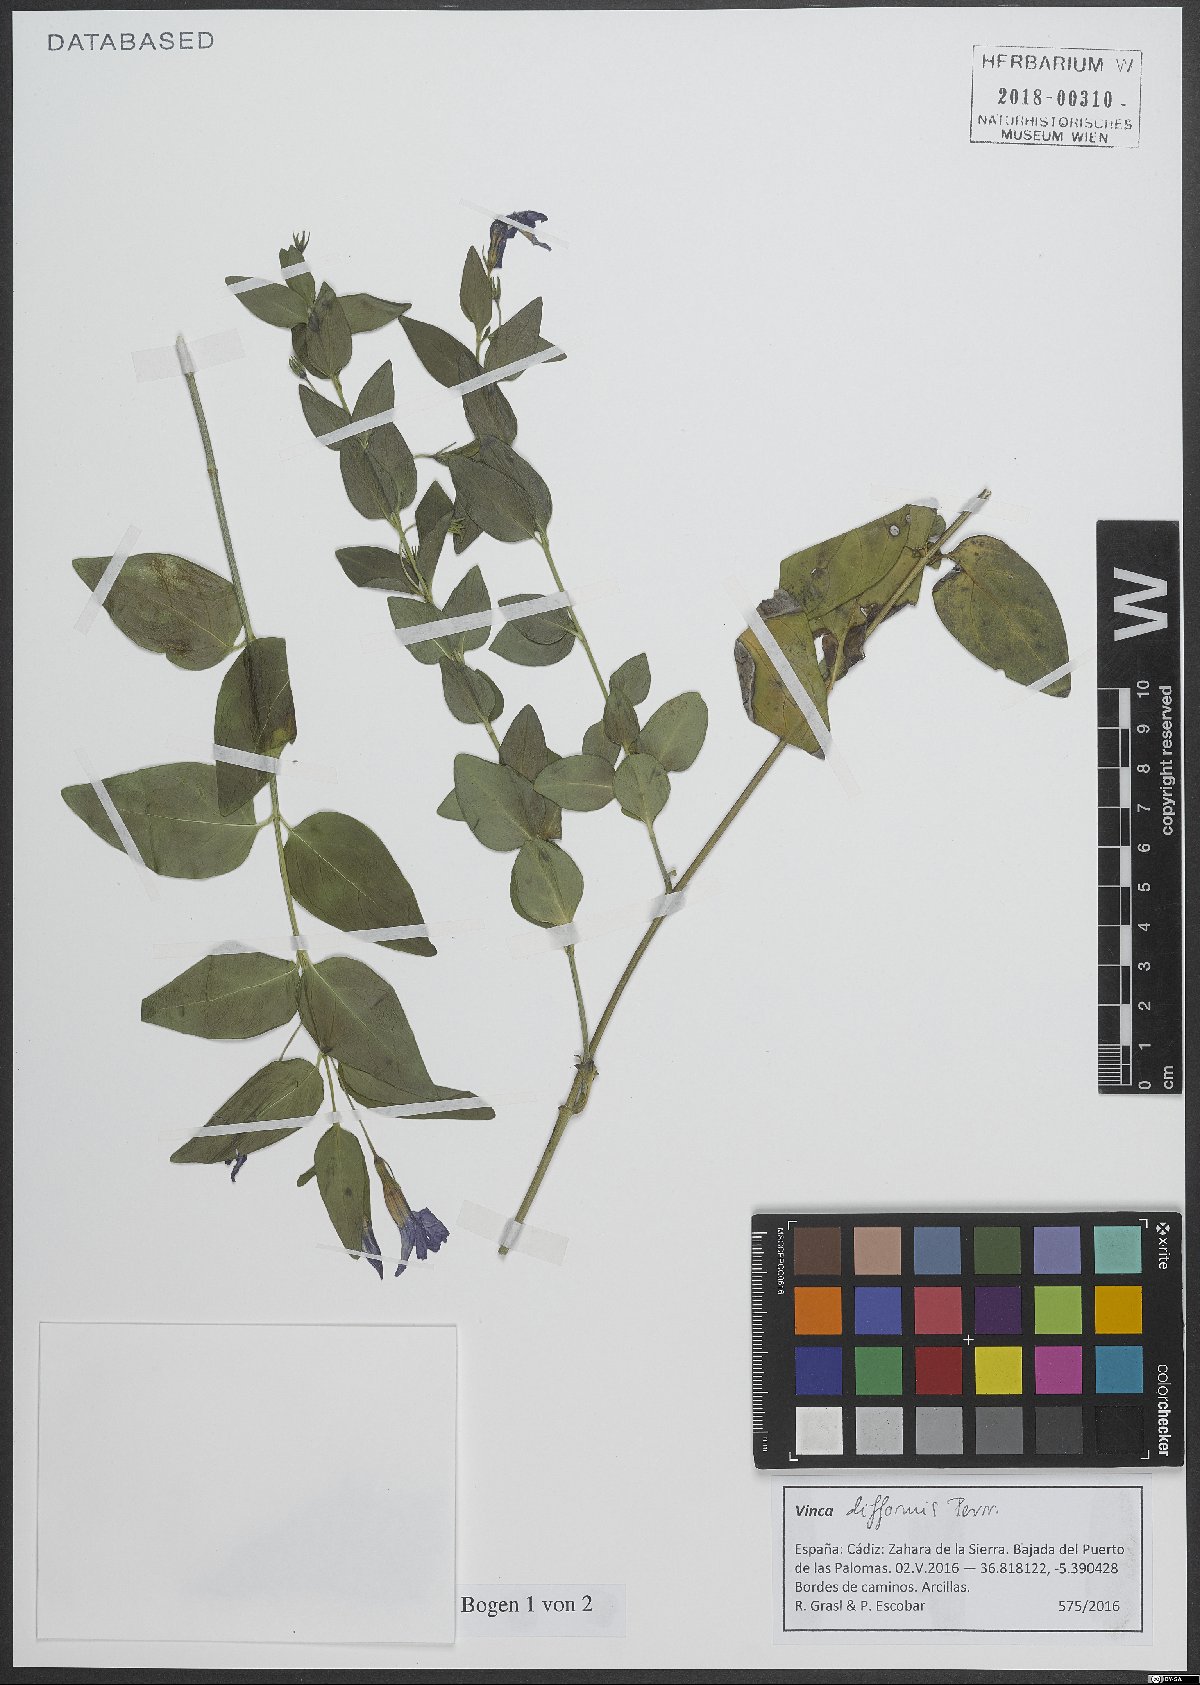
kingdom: Plantae
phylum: Tracheophyta
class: Magnoliopsida
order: Gentianales
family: Apocynaceae
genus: Vinca
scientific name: Vinca difformis
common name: Intermediate periwinkle
